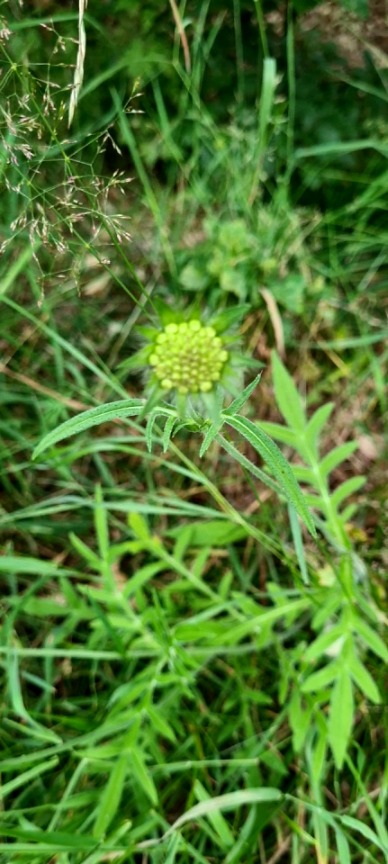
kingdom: Plantae
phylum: Tracheophyta
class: Magnoliopsida
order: Dipsacales
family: Caprifoliaceae
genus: Knautia
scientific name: Knautia arvensis
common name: Blåhat
